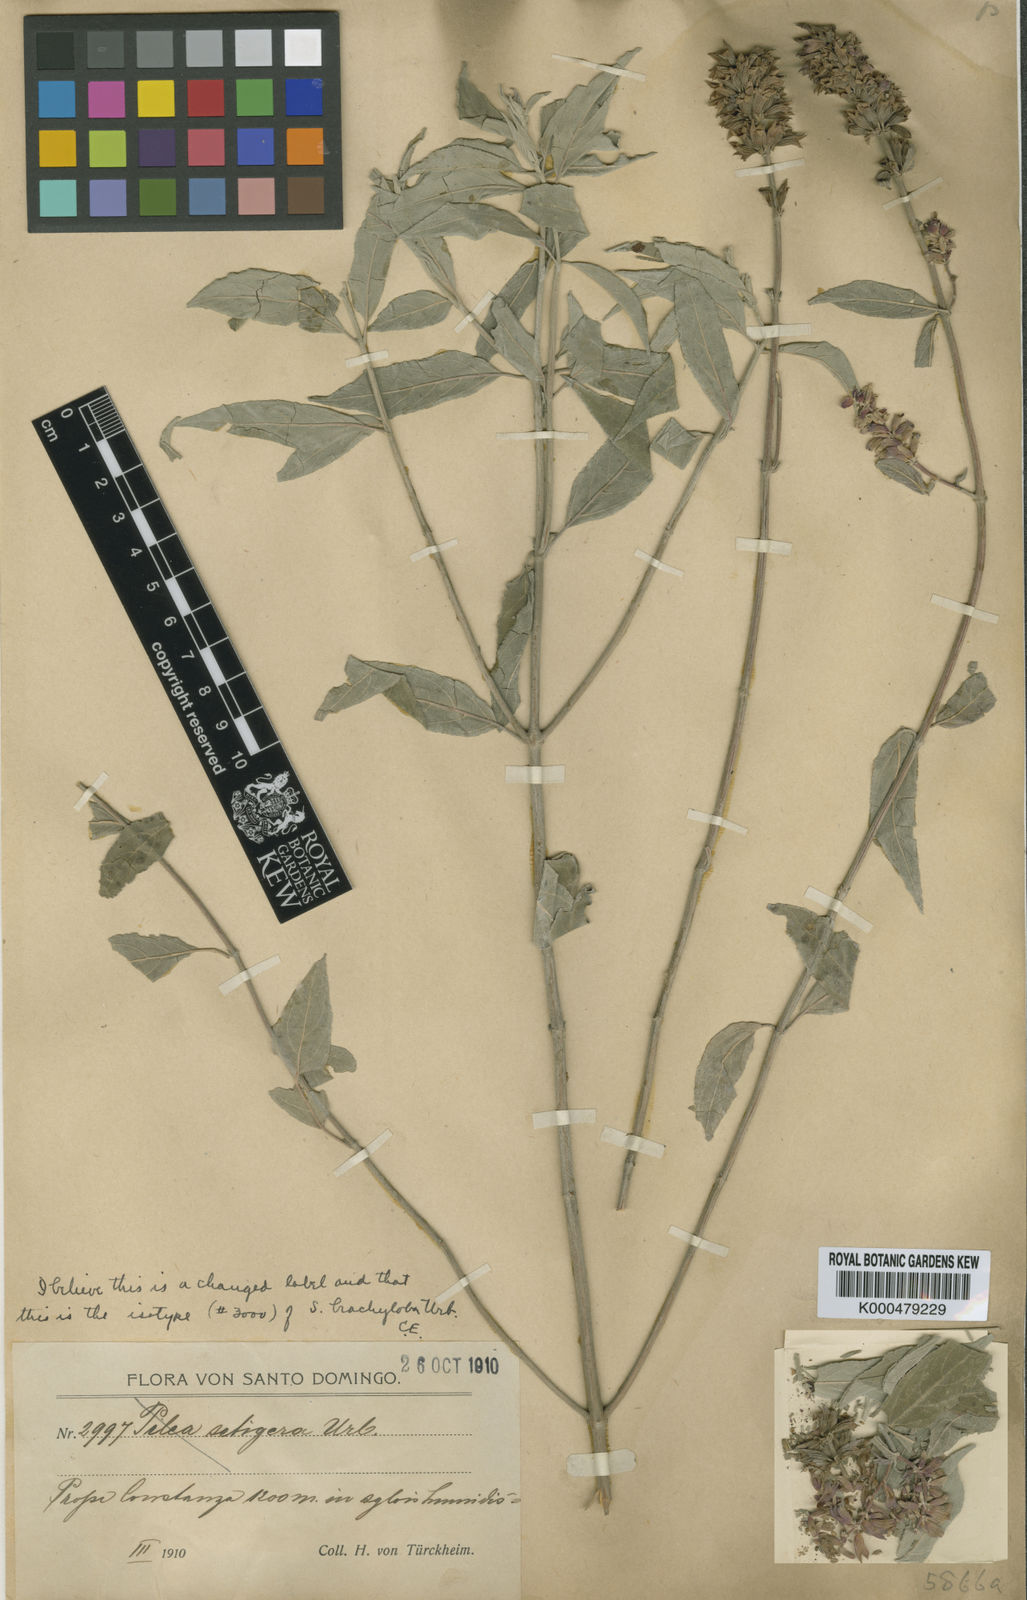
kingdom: Plantae
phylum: Tracheophyta
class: Magnoliopsida
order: Lamiales
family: Lamiaceae
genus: Salvia
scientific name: Salvia brachyloba
